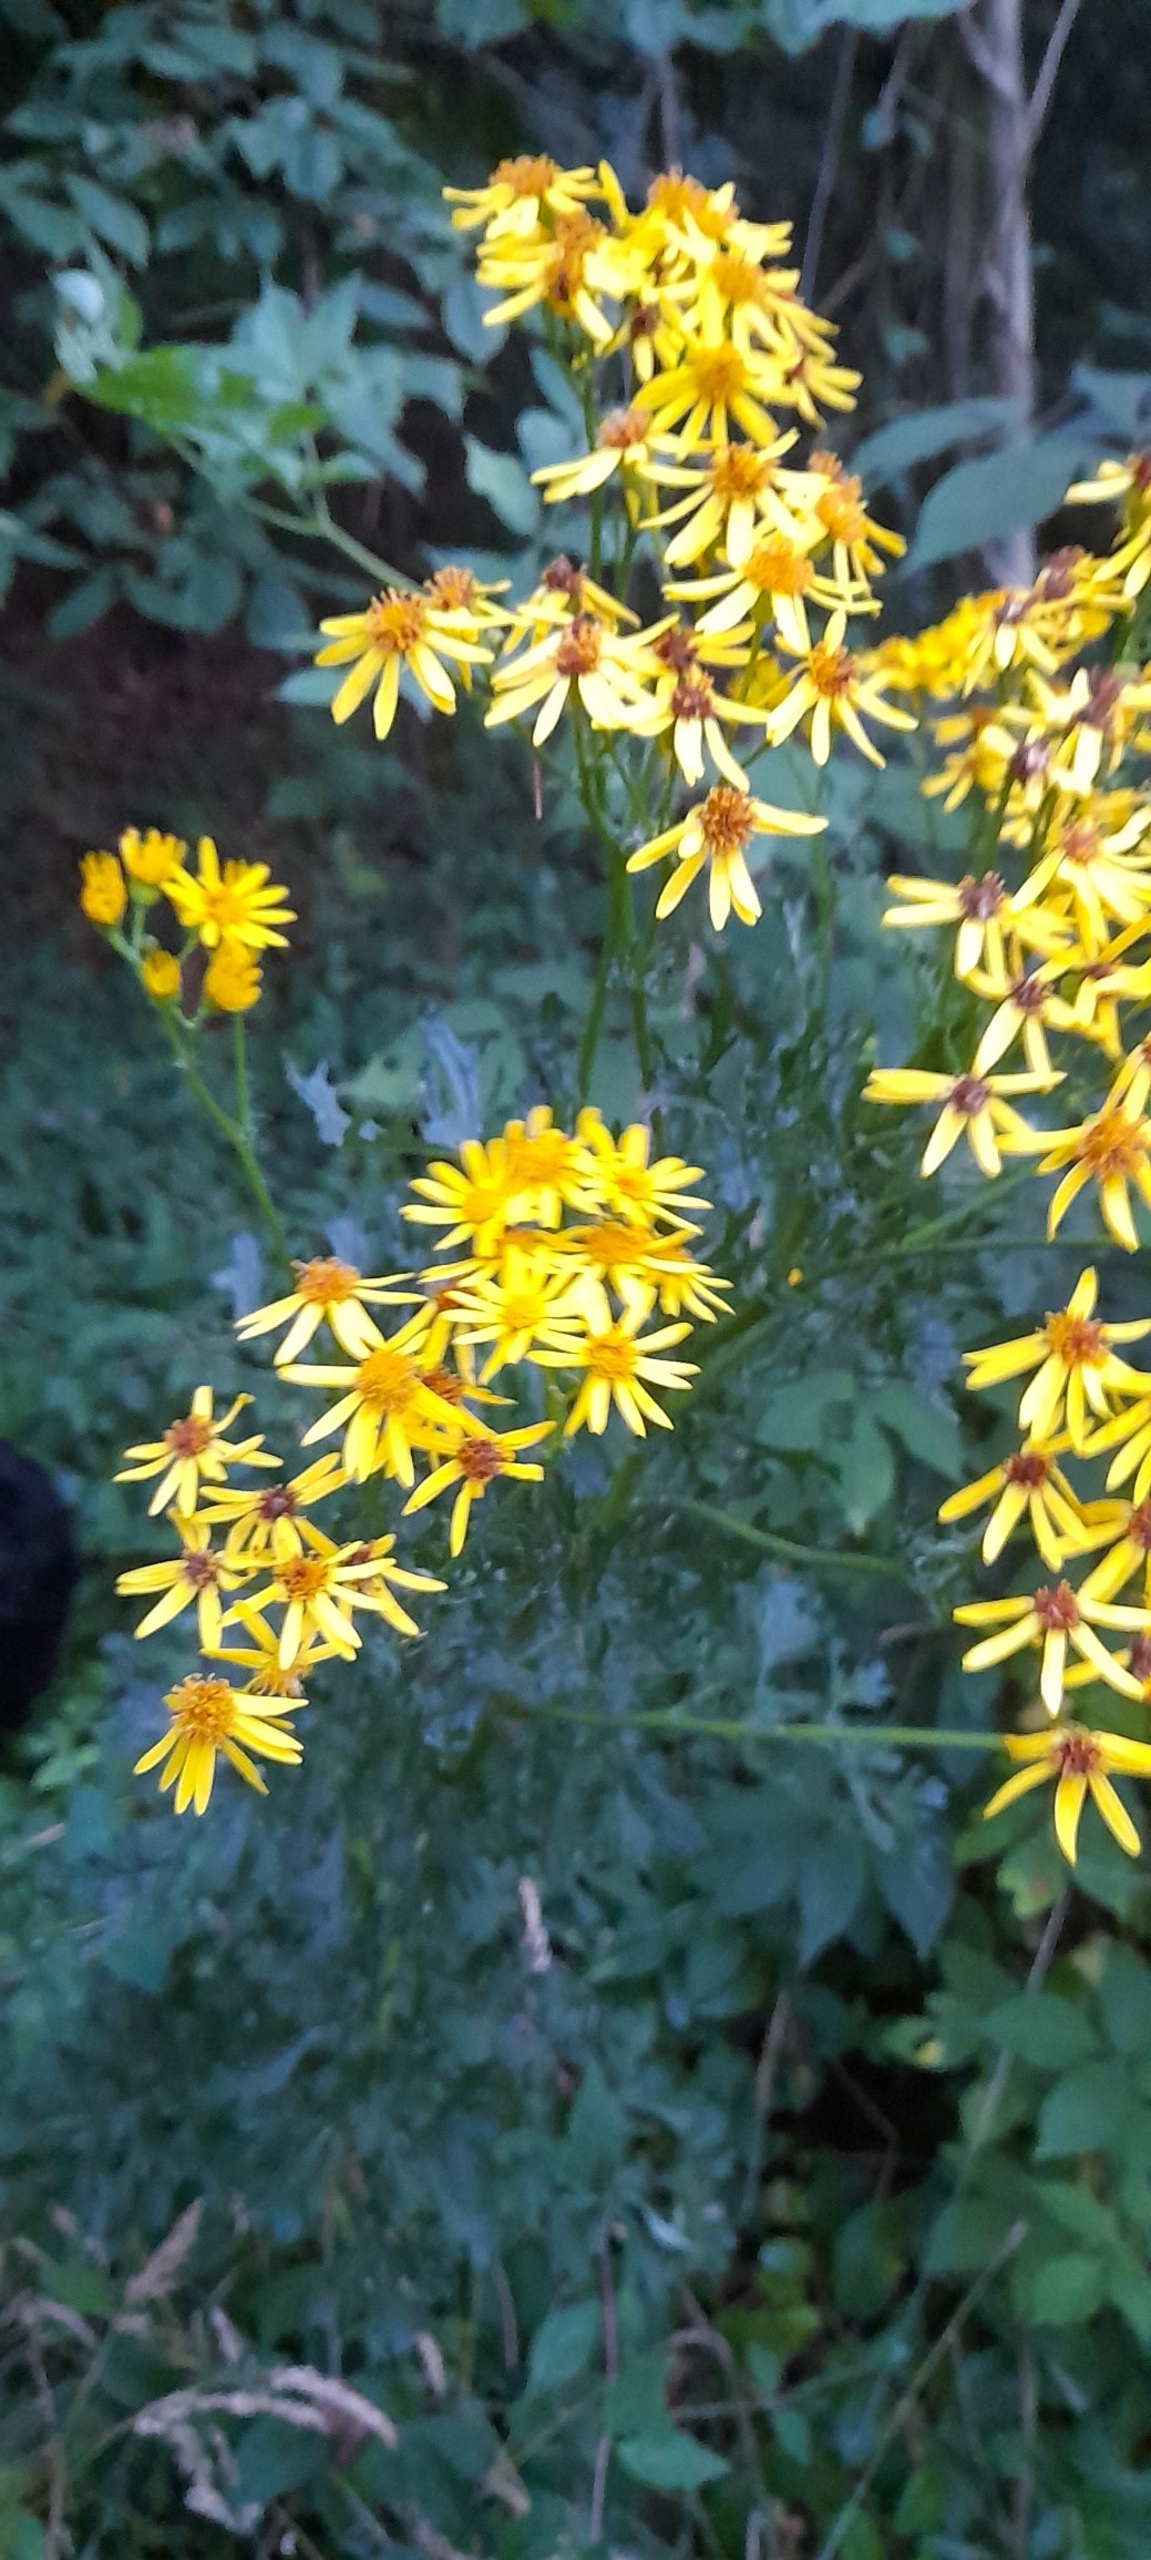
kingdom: Plantae
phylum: Tracheophyta
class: Magnoliopsida
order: Asterales
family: Asteraceae
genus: Jacobaea
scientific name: Jacobaea vulgaris
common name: Eng-brandbæger
